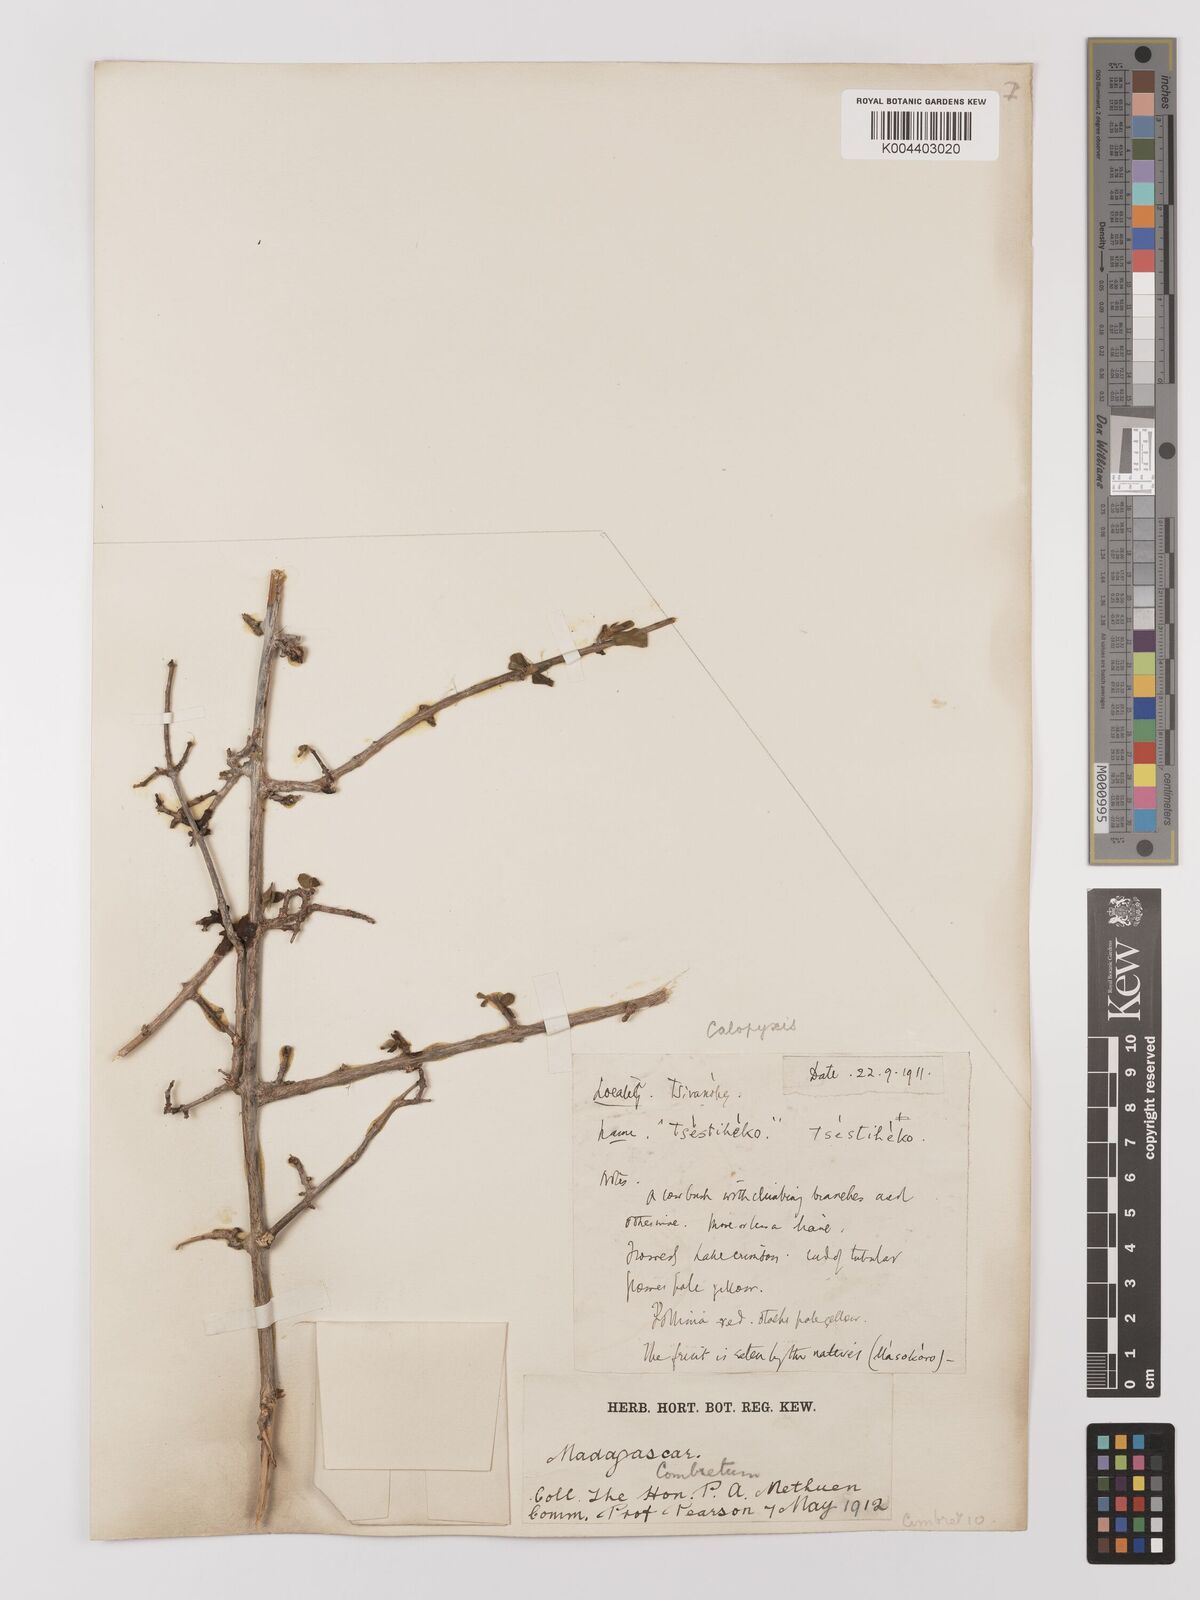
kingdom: Plantae
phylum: Tracheophyta
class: Magnoliopsida
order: Myrtales
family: Combretaceae
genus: Combretum
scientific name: Combretum
